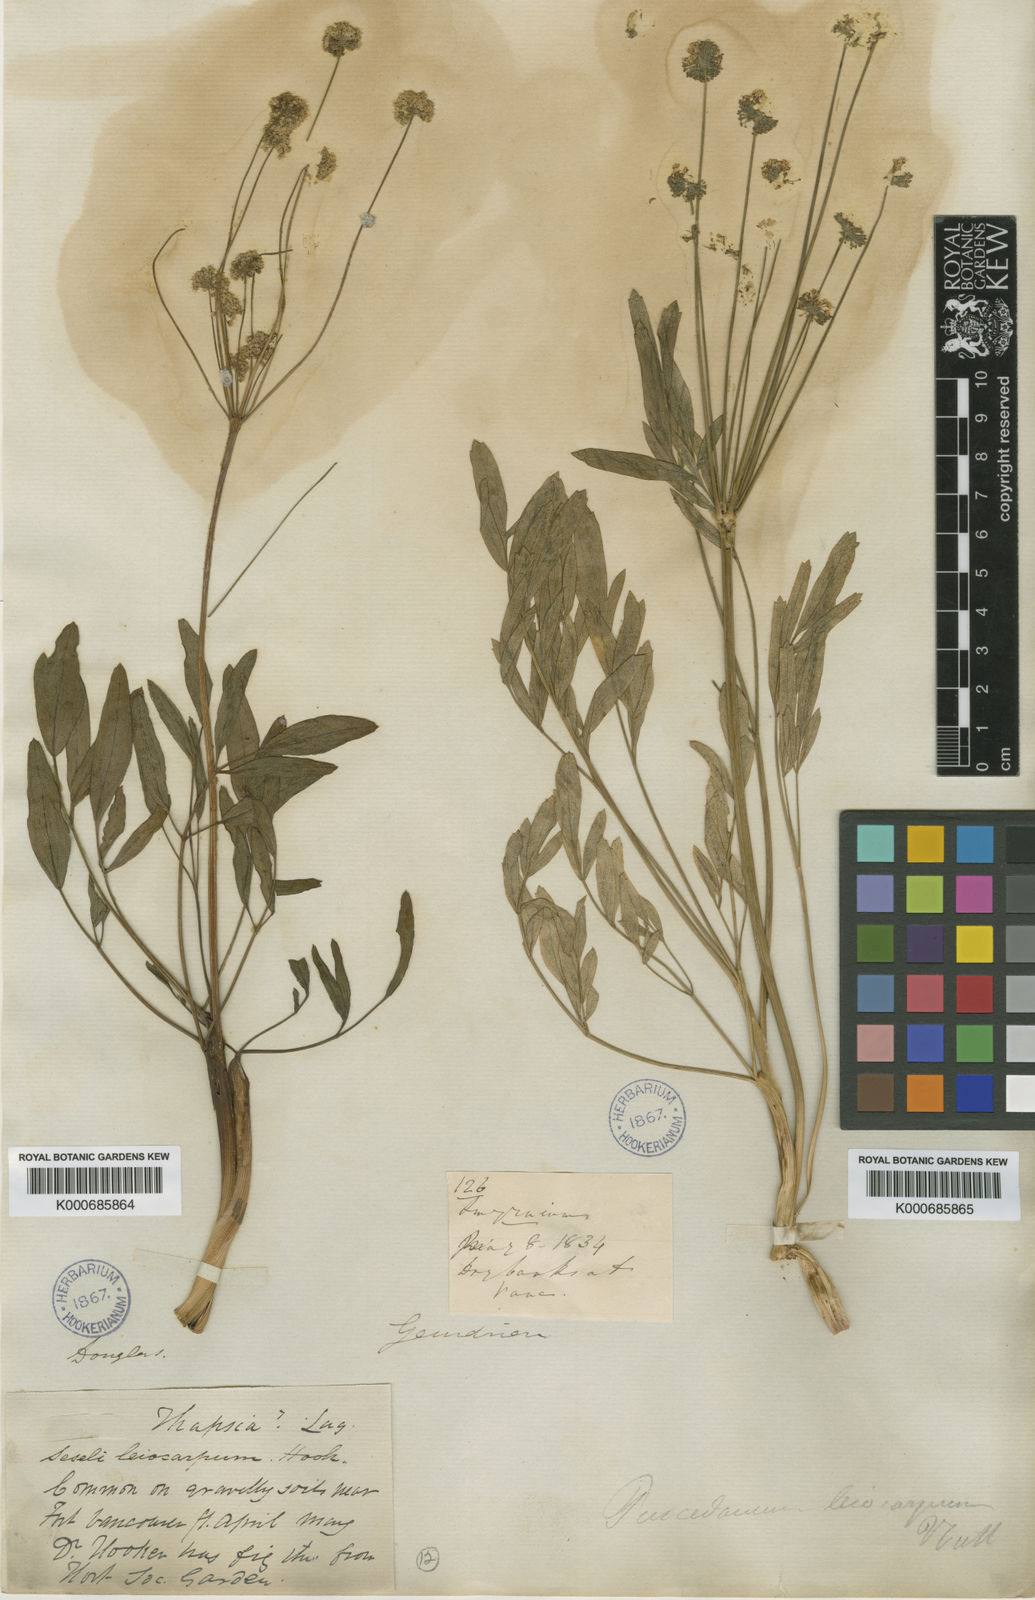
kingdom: Plantae
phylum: Tracheophyta
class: Magnoliopsida
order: Apiales
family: Apiaceae
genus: Lomatium
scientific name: Lomatium nudicaule
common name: Pestle lomatium
